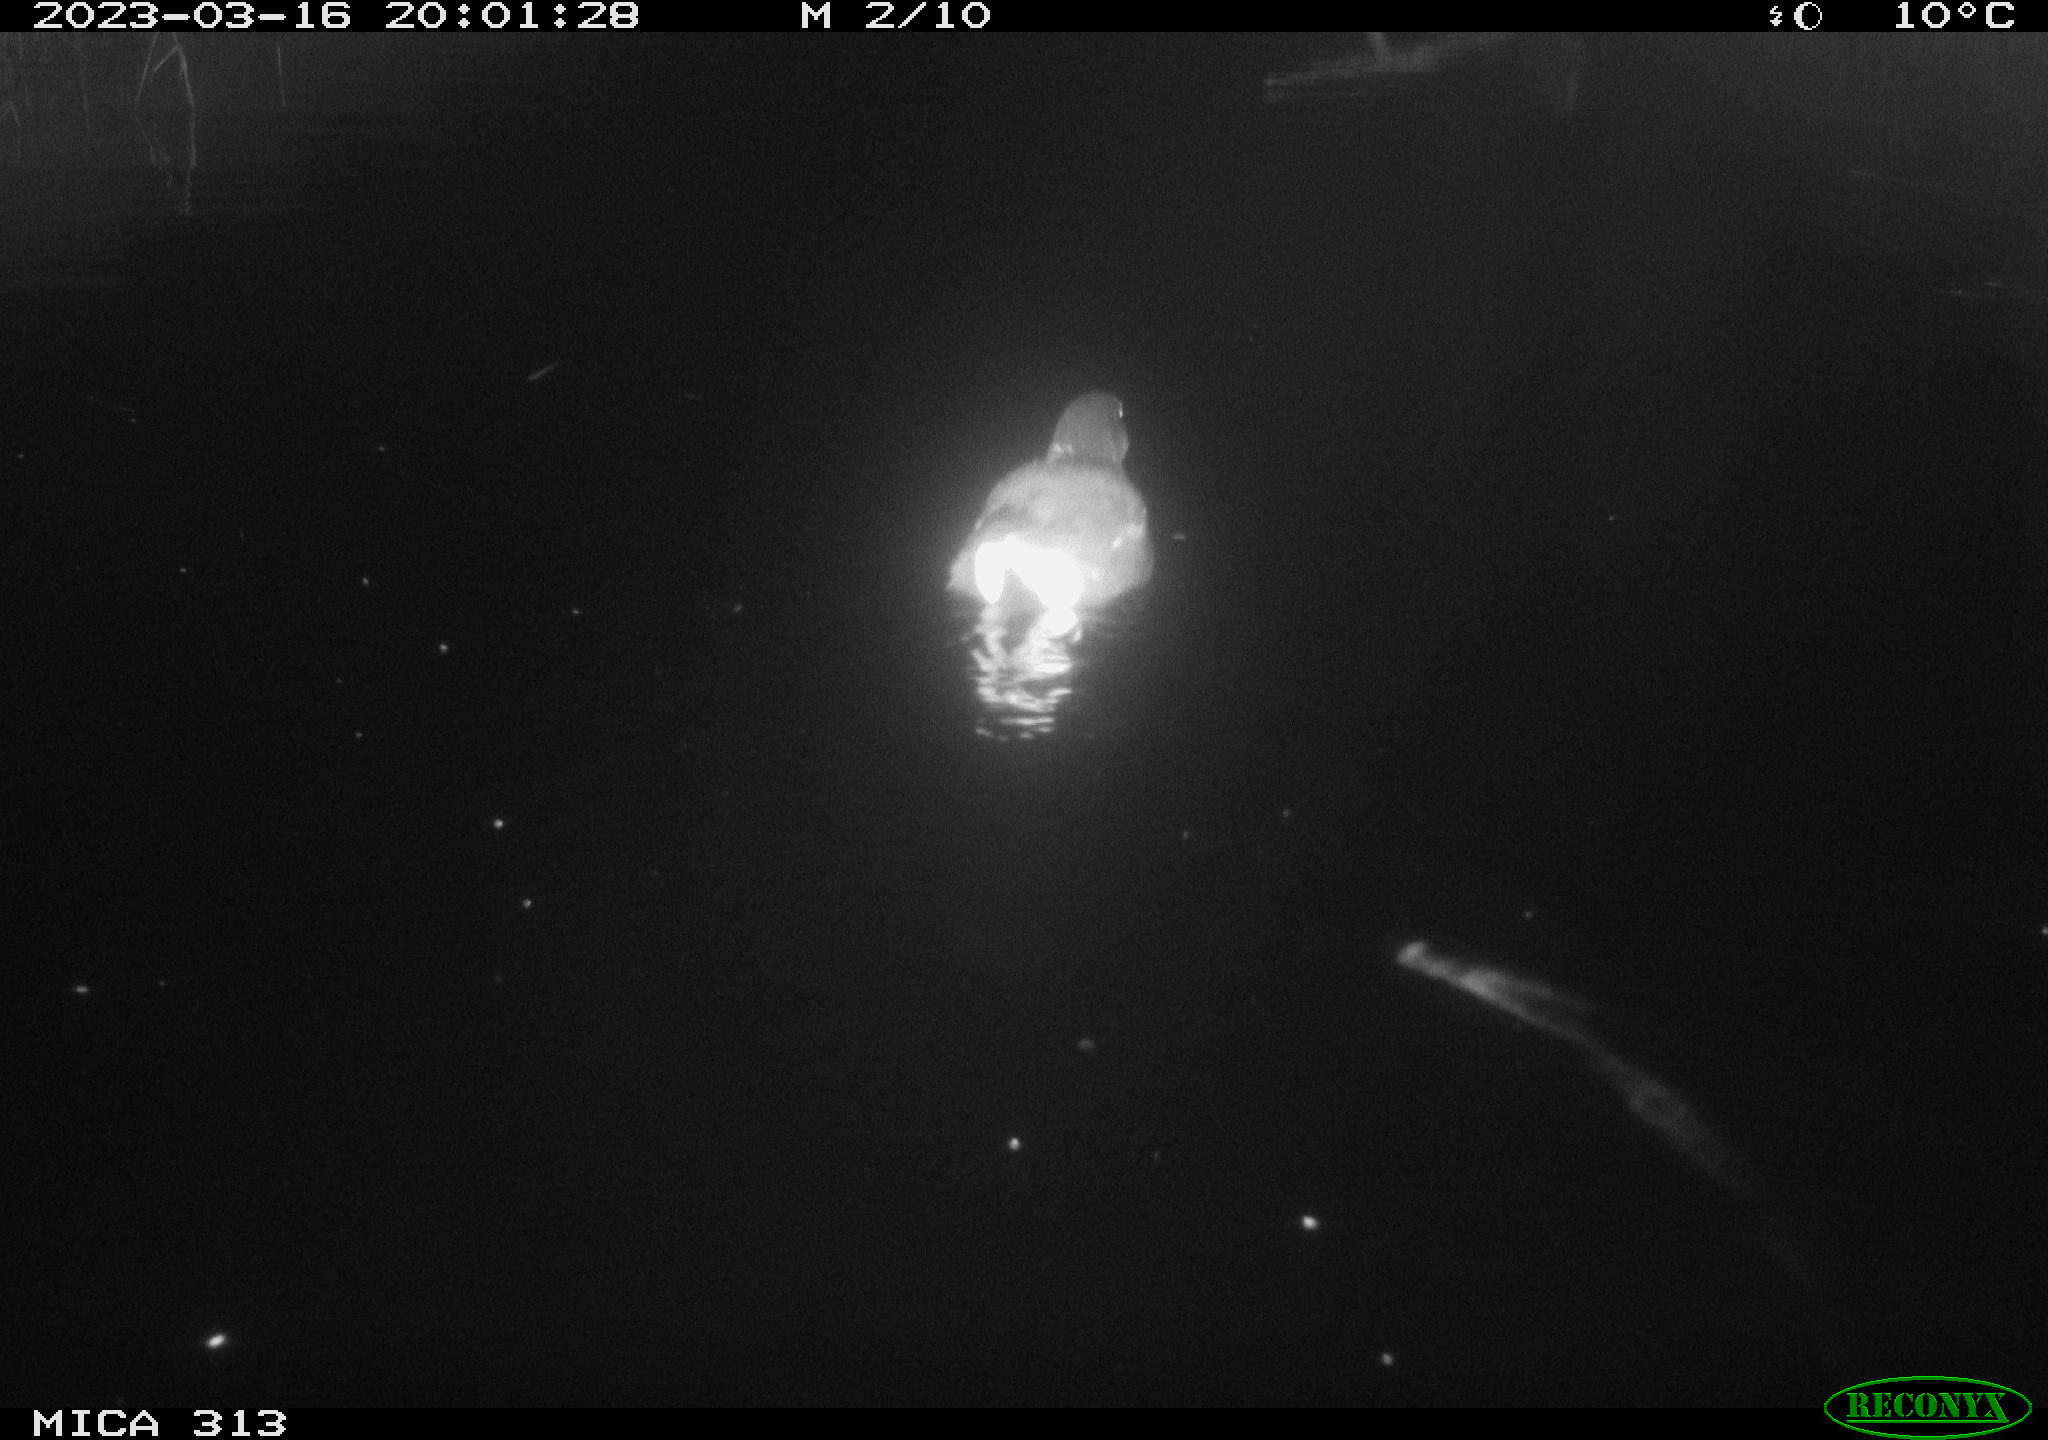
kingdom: Animalia
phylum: Chordata
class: Aves
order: Gruiformes
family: Rallidae
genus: Gallinula
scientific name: Gallinula chloropus
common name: Common moorhen
